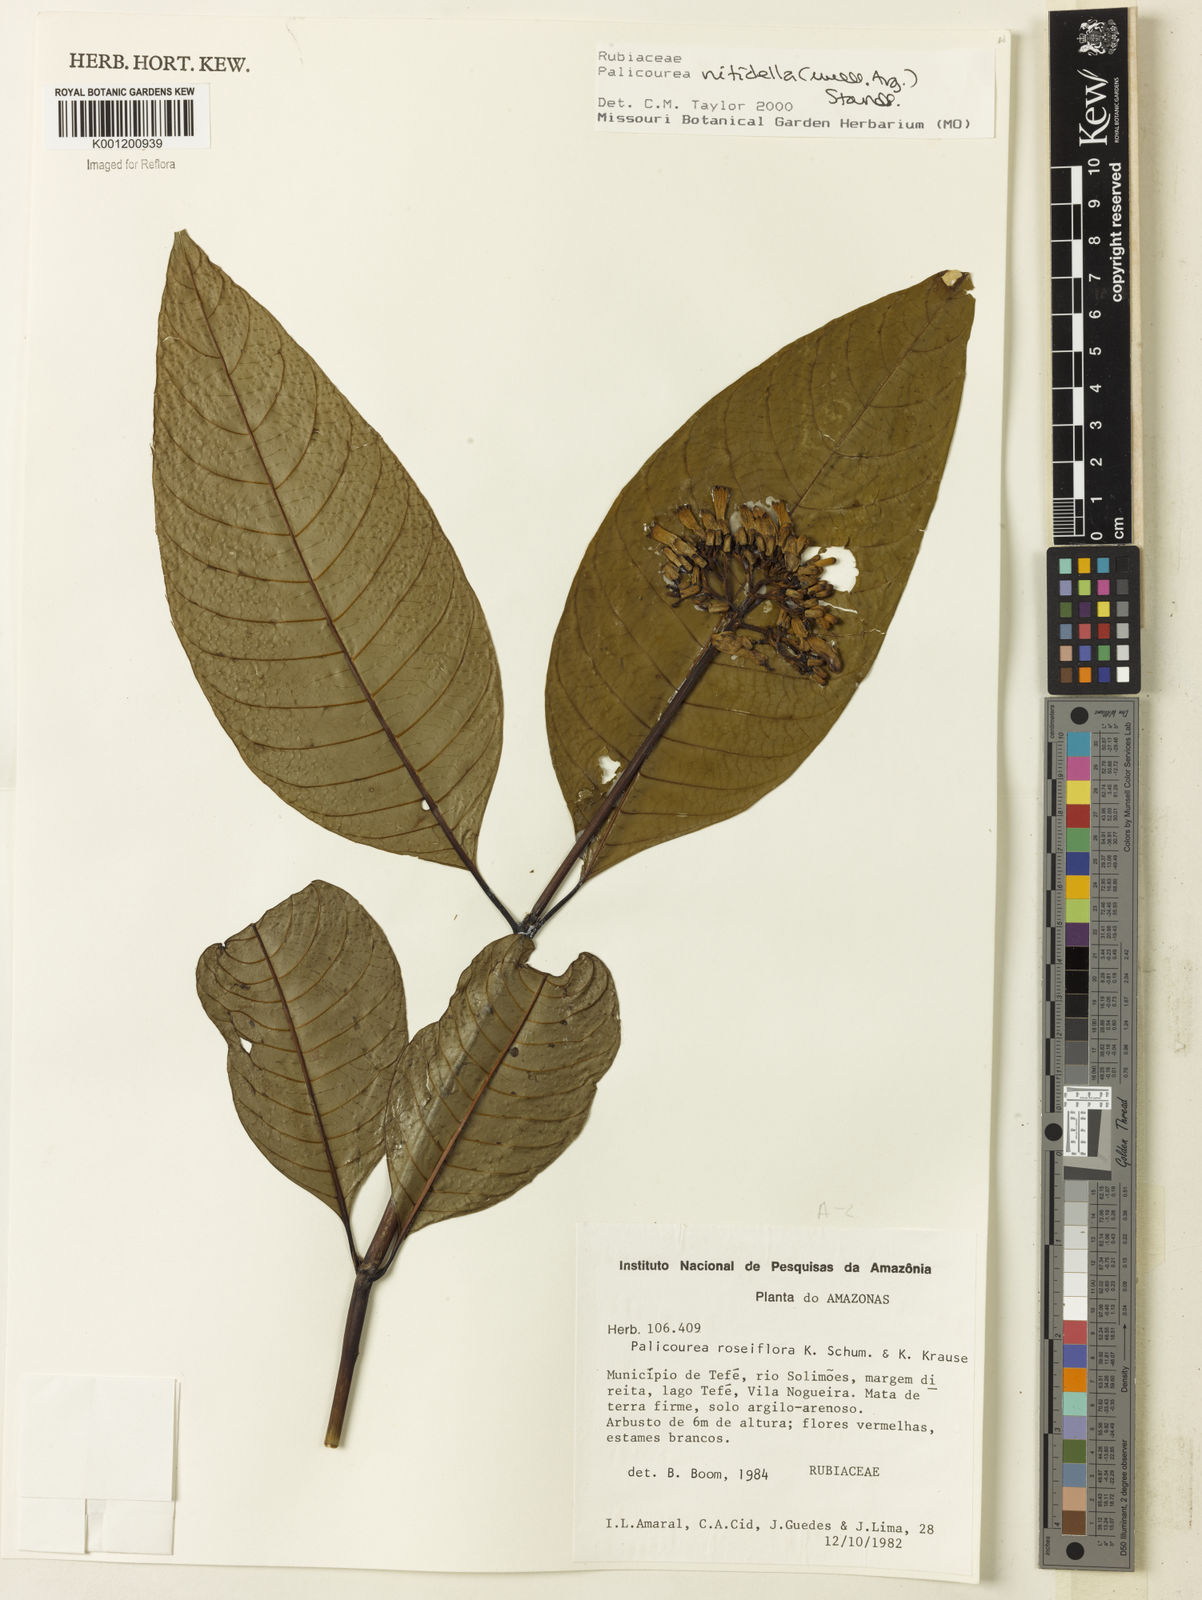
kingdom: Plantae
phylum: Tracheophyta
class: Magnoliopsida
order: Gentianales
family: Rubiaceae
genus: Palicourea
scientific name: Palicourea
